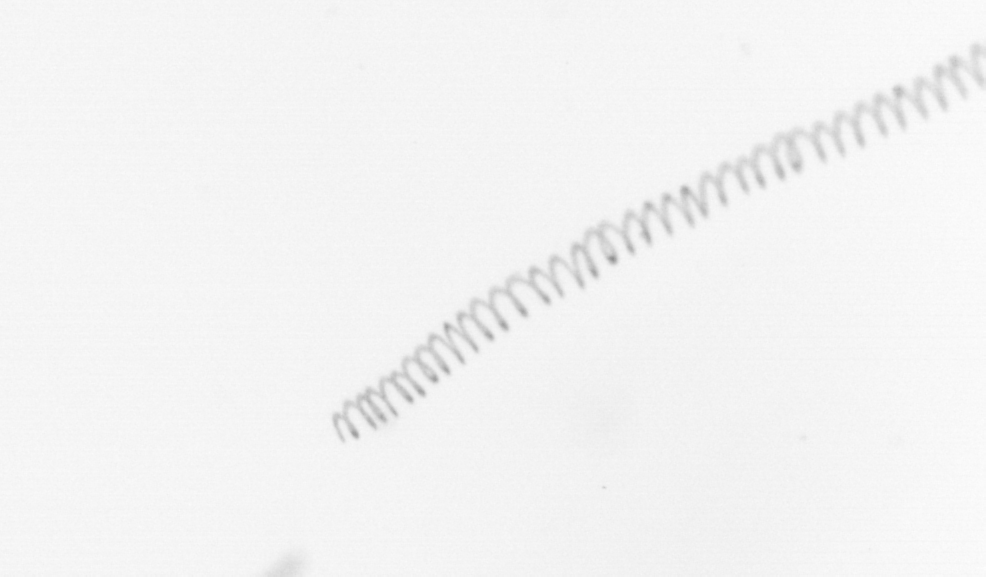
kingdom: Chromista
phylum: Ochrophyta
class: Bacillariophyceae
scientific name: Bacillariophyceae
